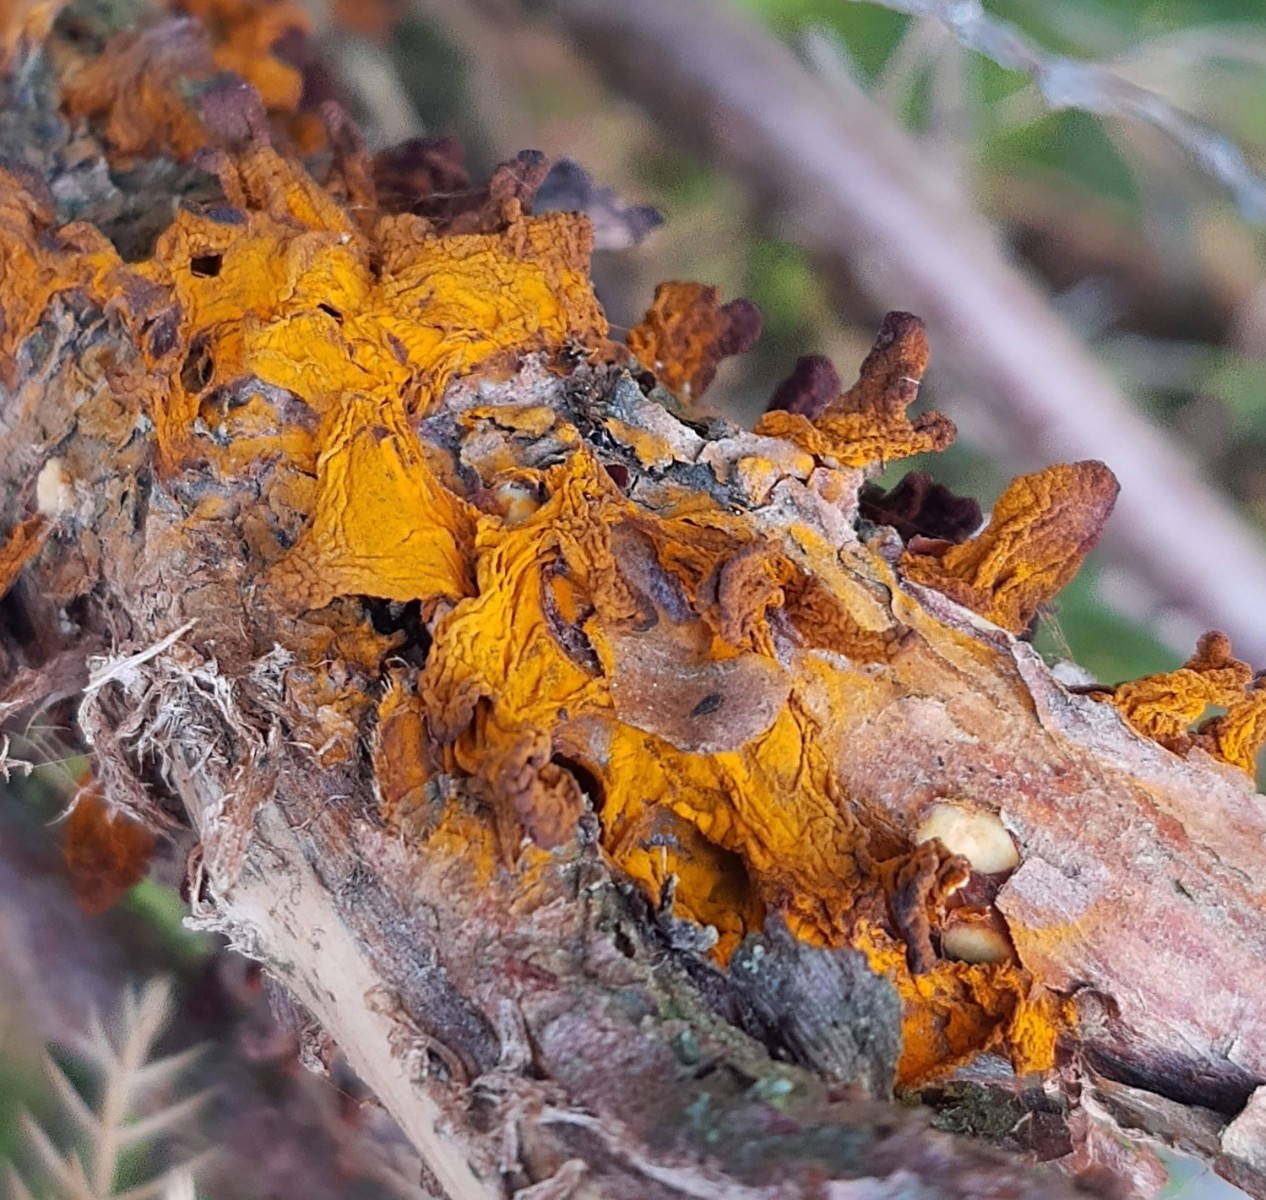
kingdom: Fungi
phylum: Basidiomycota
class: Pucciniomycetes
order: Pucciniales
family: Gymnosporangiaceae
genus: Gymnosporangium
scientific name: Gymnosporangium sabinae
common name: pæregitter-bævrerust
